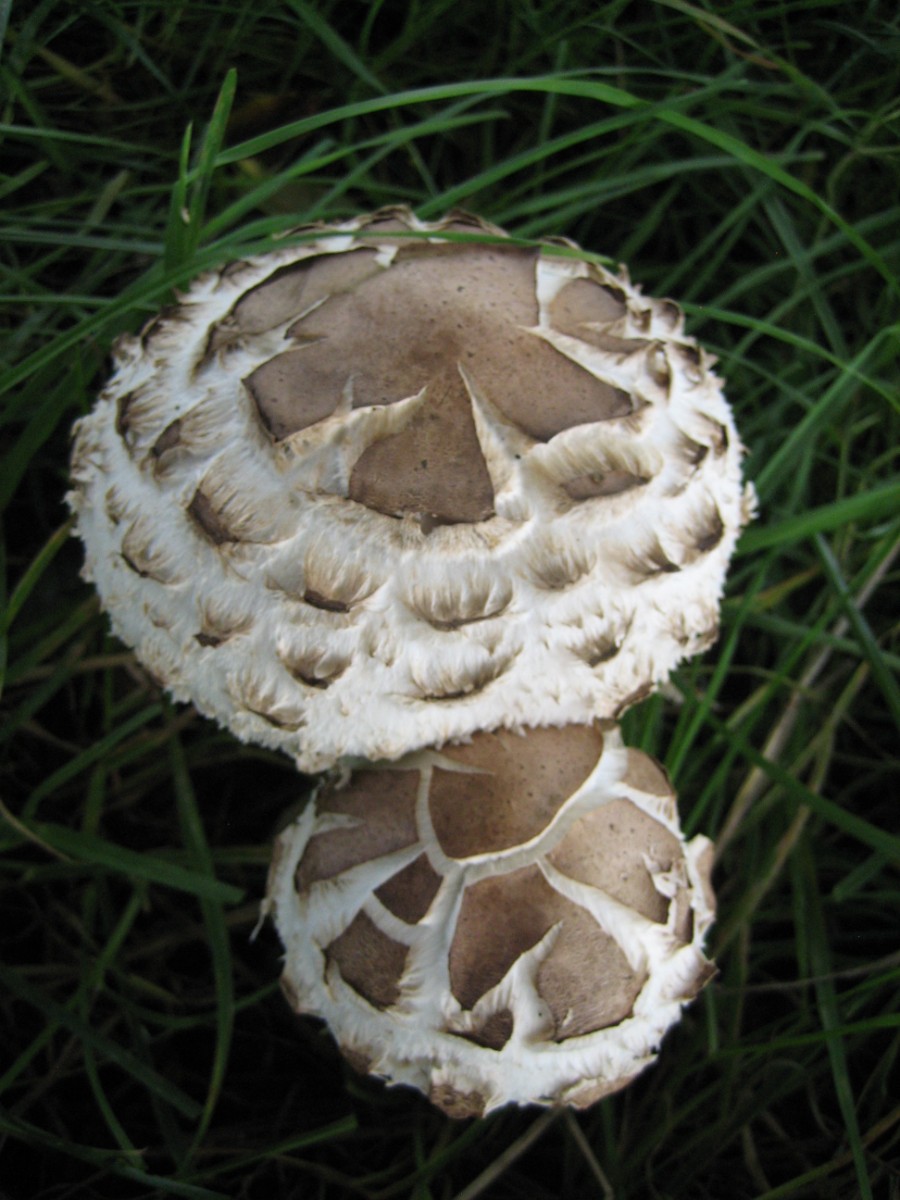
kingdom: Fungi
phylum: Basidiomycota
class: Agaricomycetes
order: Agaricales
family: Agaricaceae
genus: Chlorophyllum
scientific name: Chlorophyllum brunneum
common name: giftig rabarberhat
